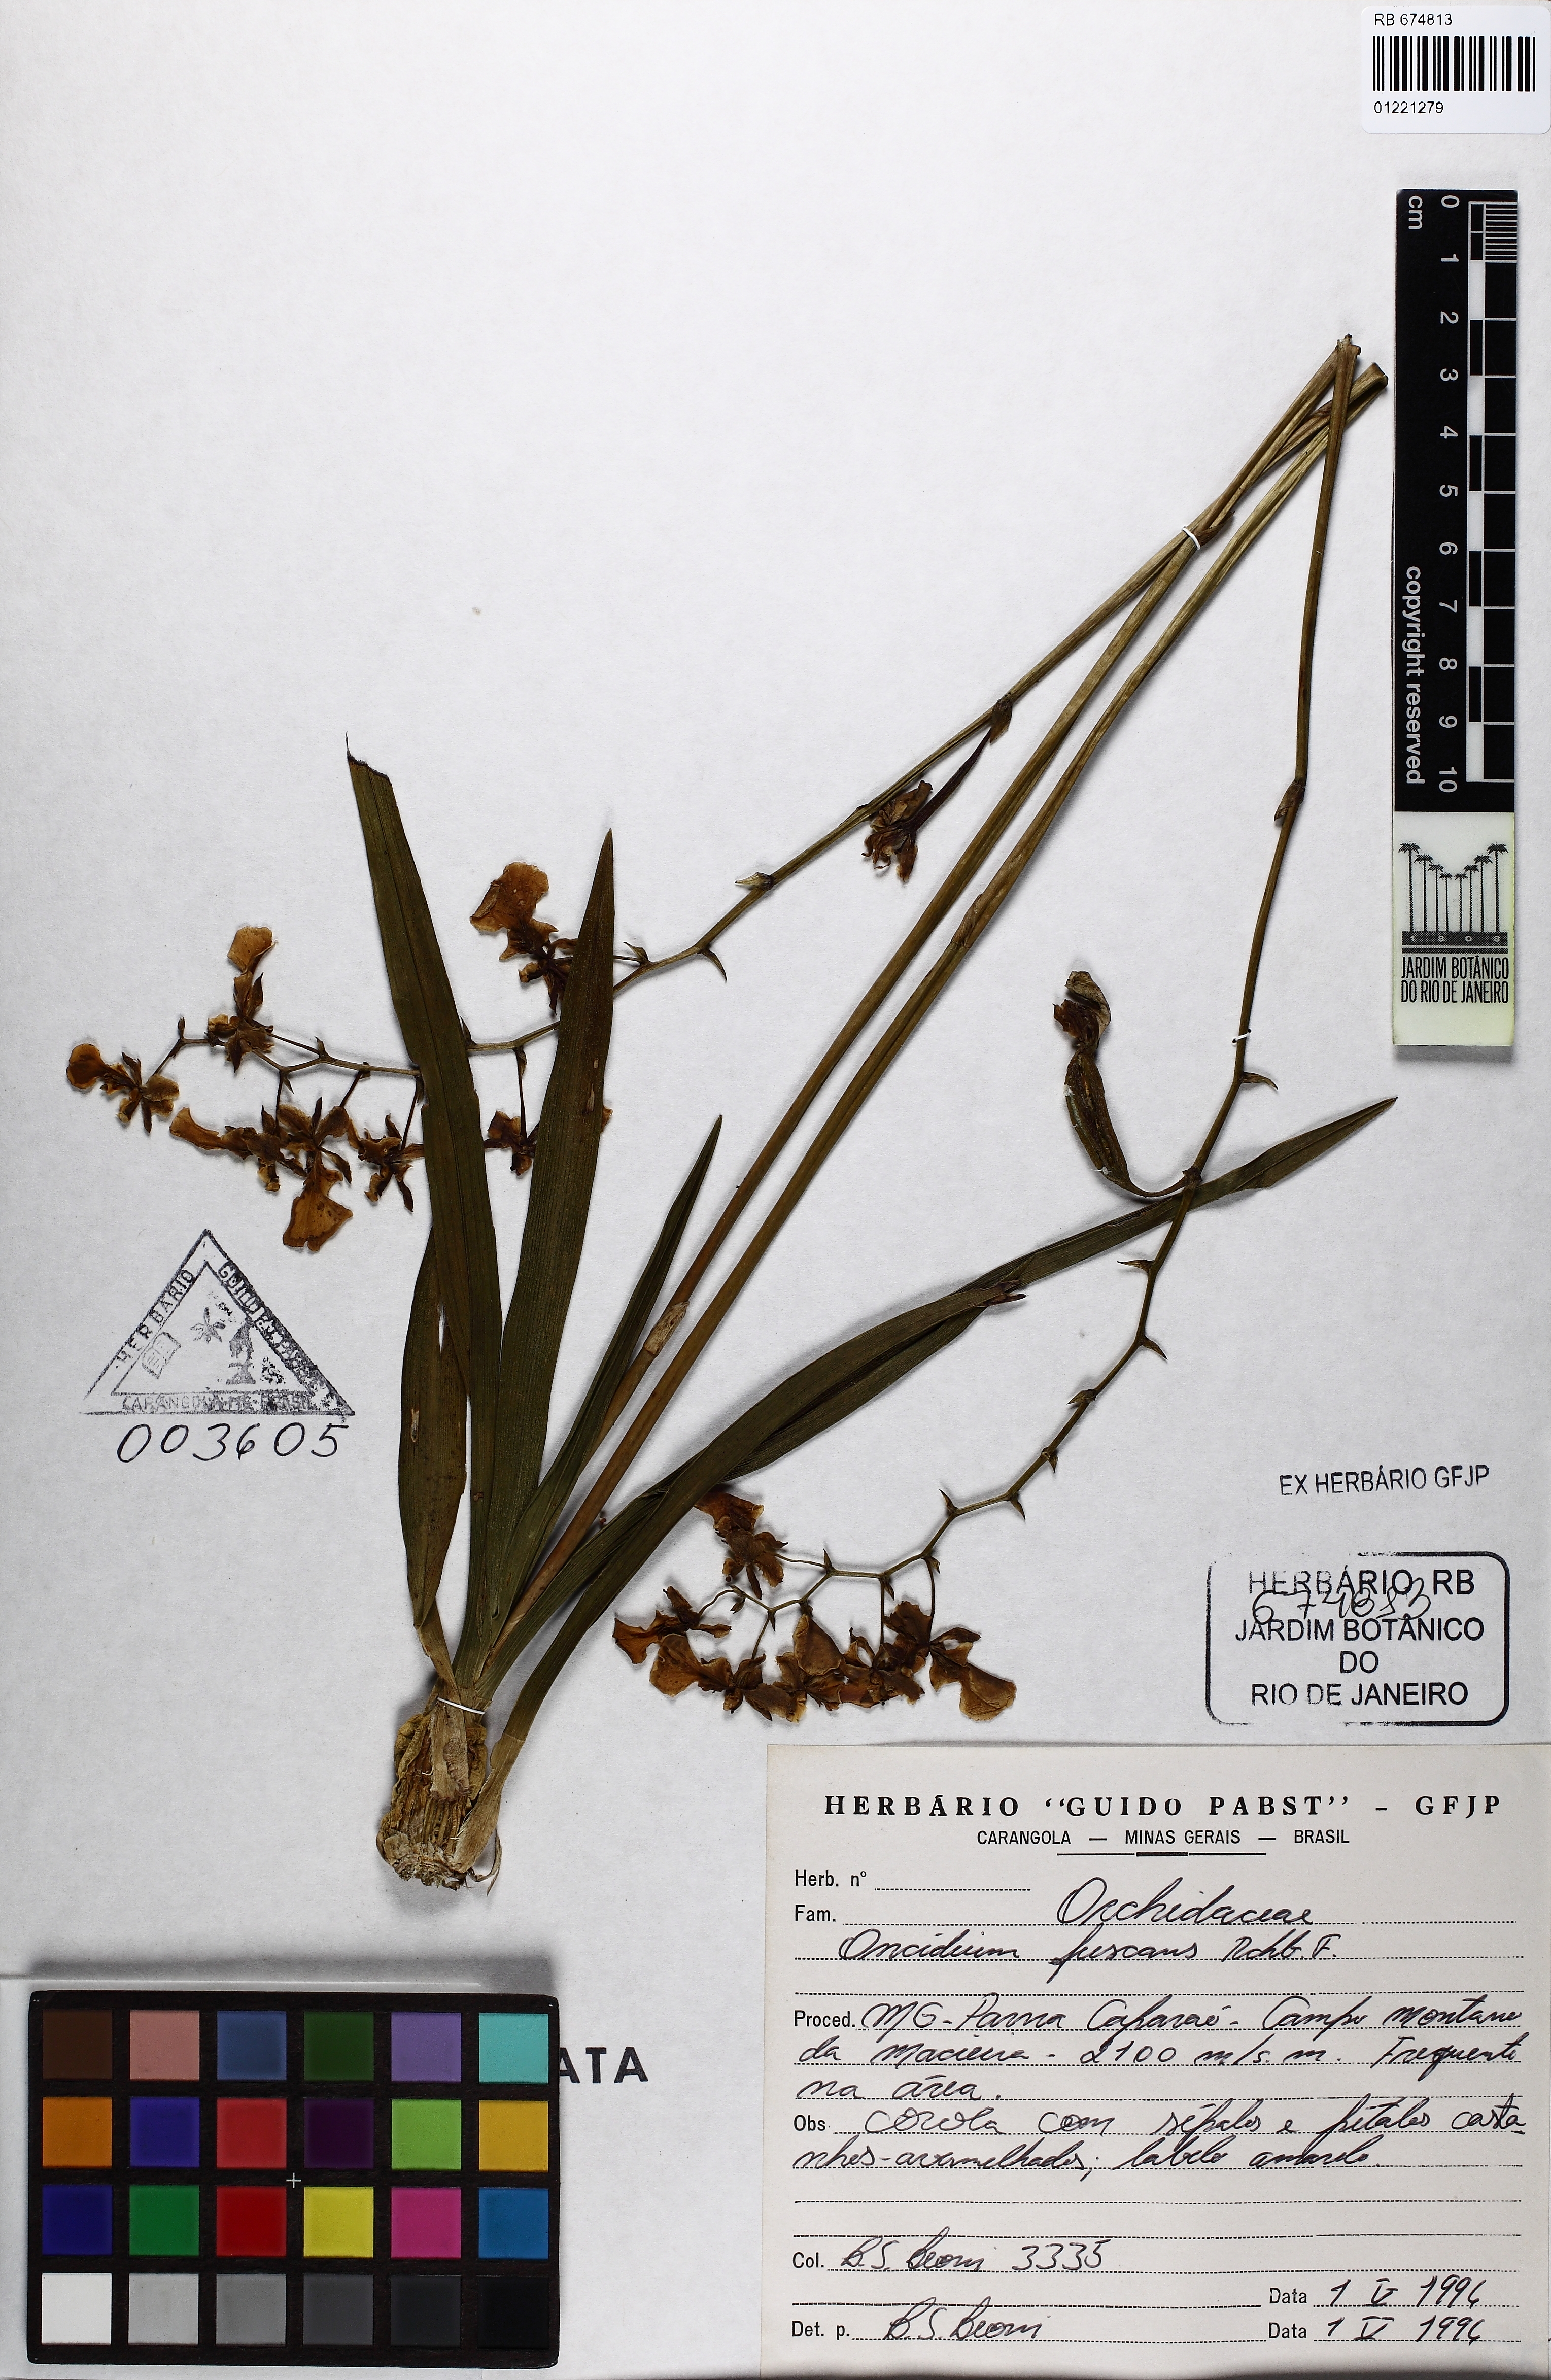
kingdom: Plantae
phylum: Tracheophyta
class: Liliopsida
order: Asparagales
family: Orchidaceae
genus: Gomesa
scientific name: Gomesa barbaceniae
